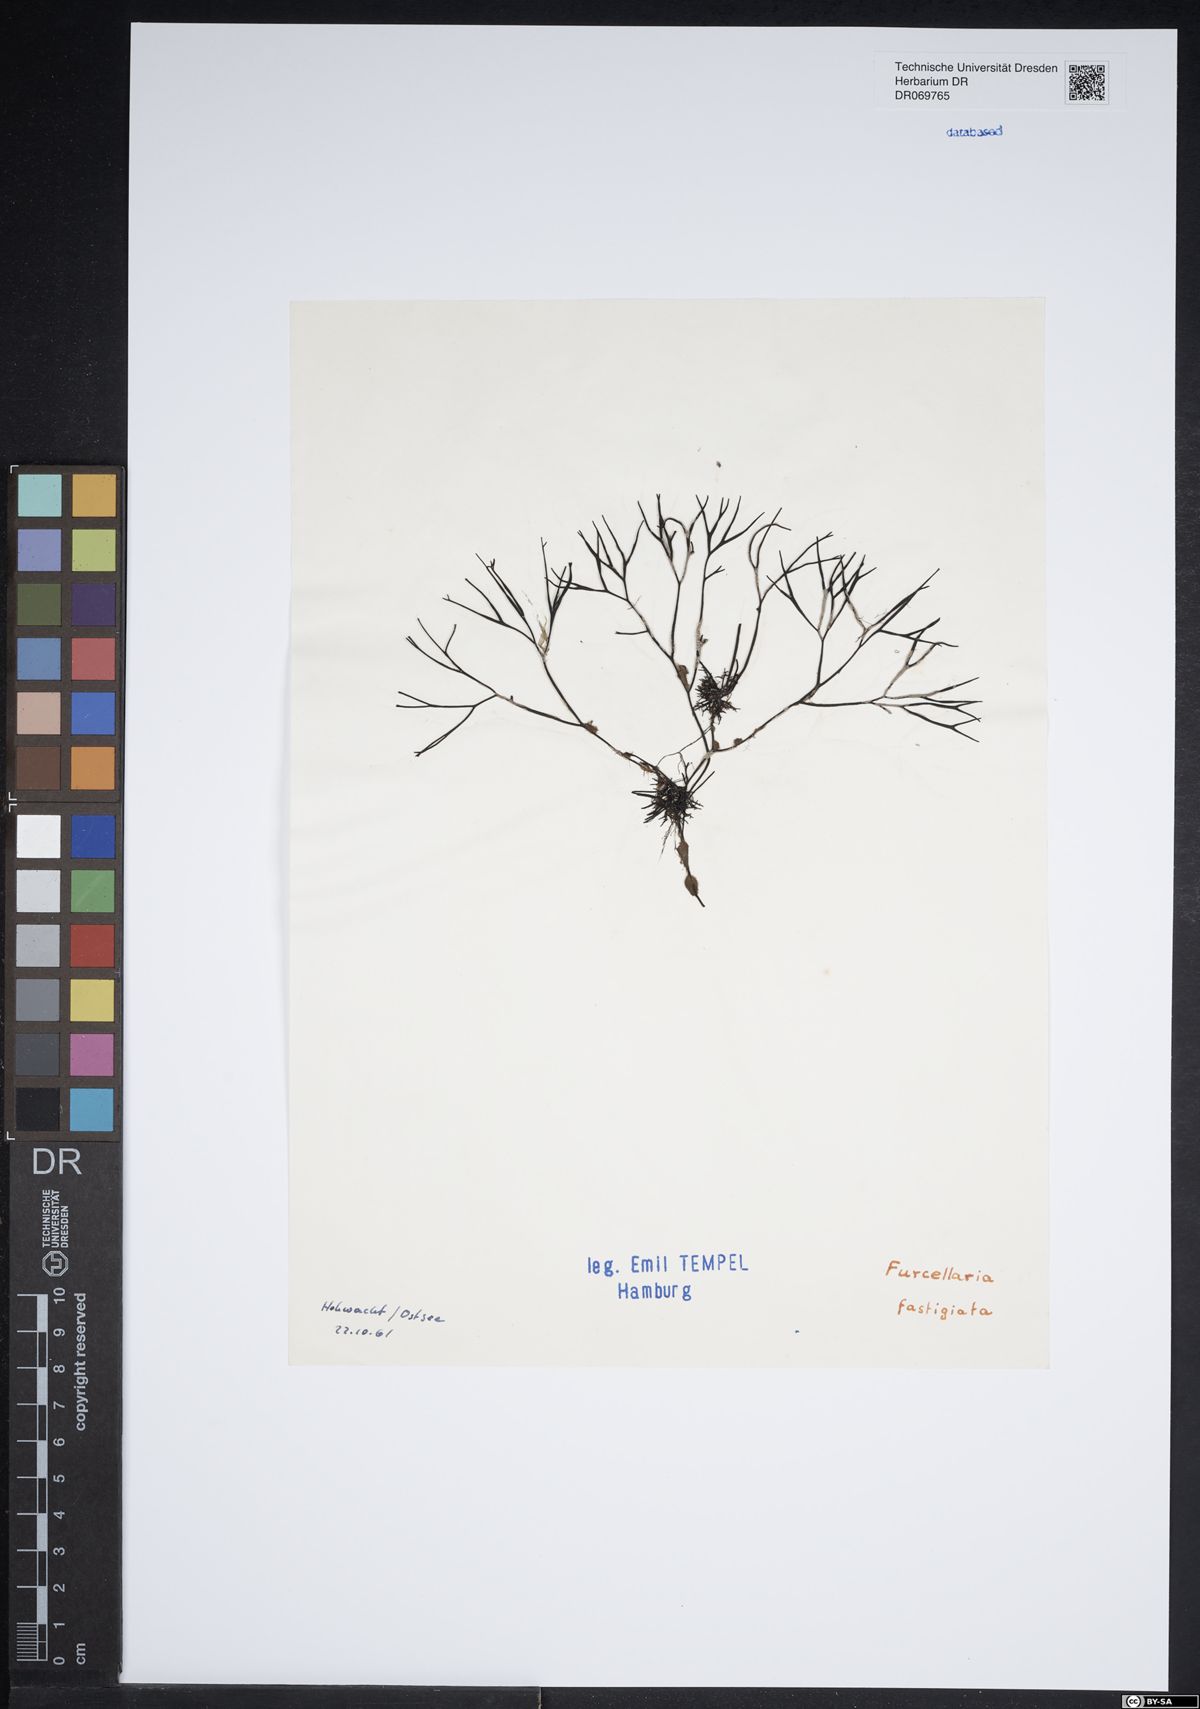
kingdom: Plantae
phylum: Rhodophyta
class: Florideophyceae
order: Gigartinales
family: Furcellariaceae
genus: Furcellaria
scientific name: Furcellaria lumbricalis
